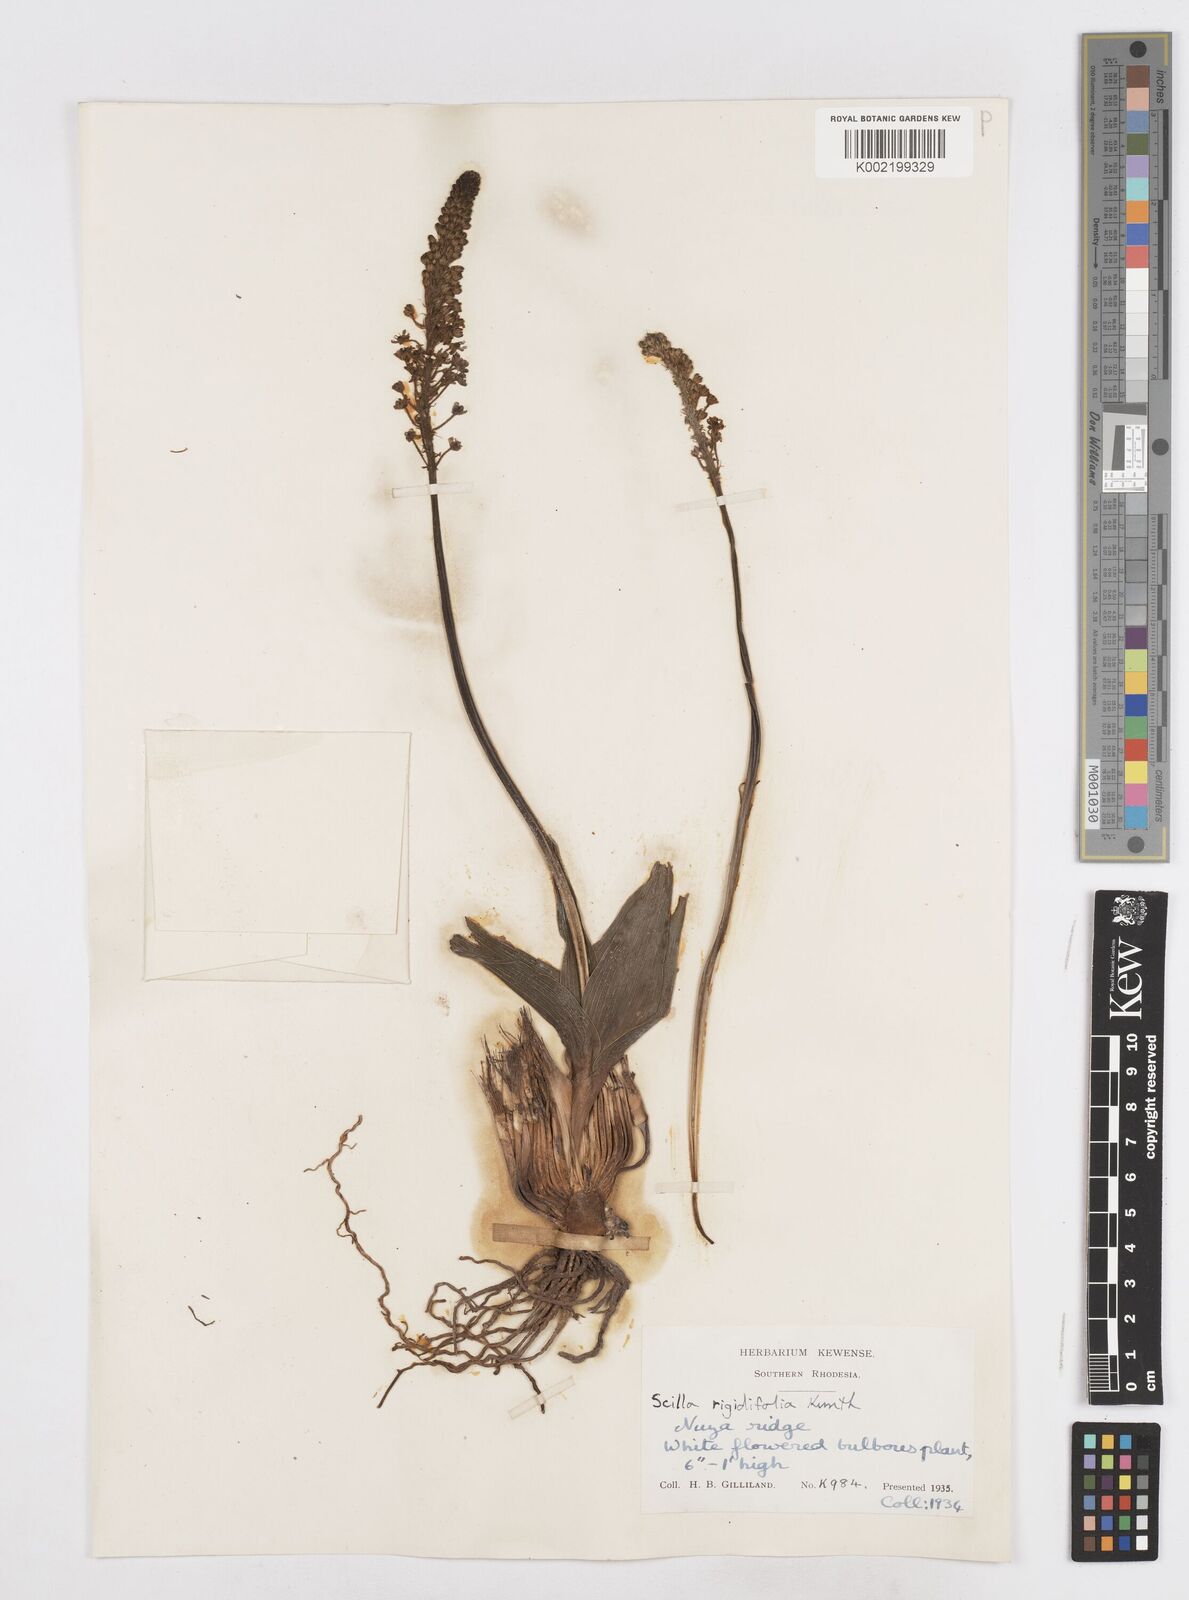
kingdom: Plantae
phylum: Tracheophyta
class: Liliopsida
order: Asparagales
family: Asparagaceae
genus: Schizocarphus
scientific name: Schizocarphus nervosus
